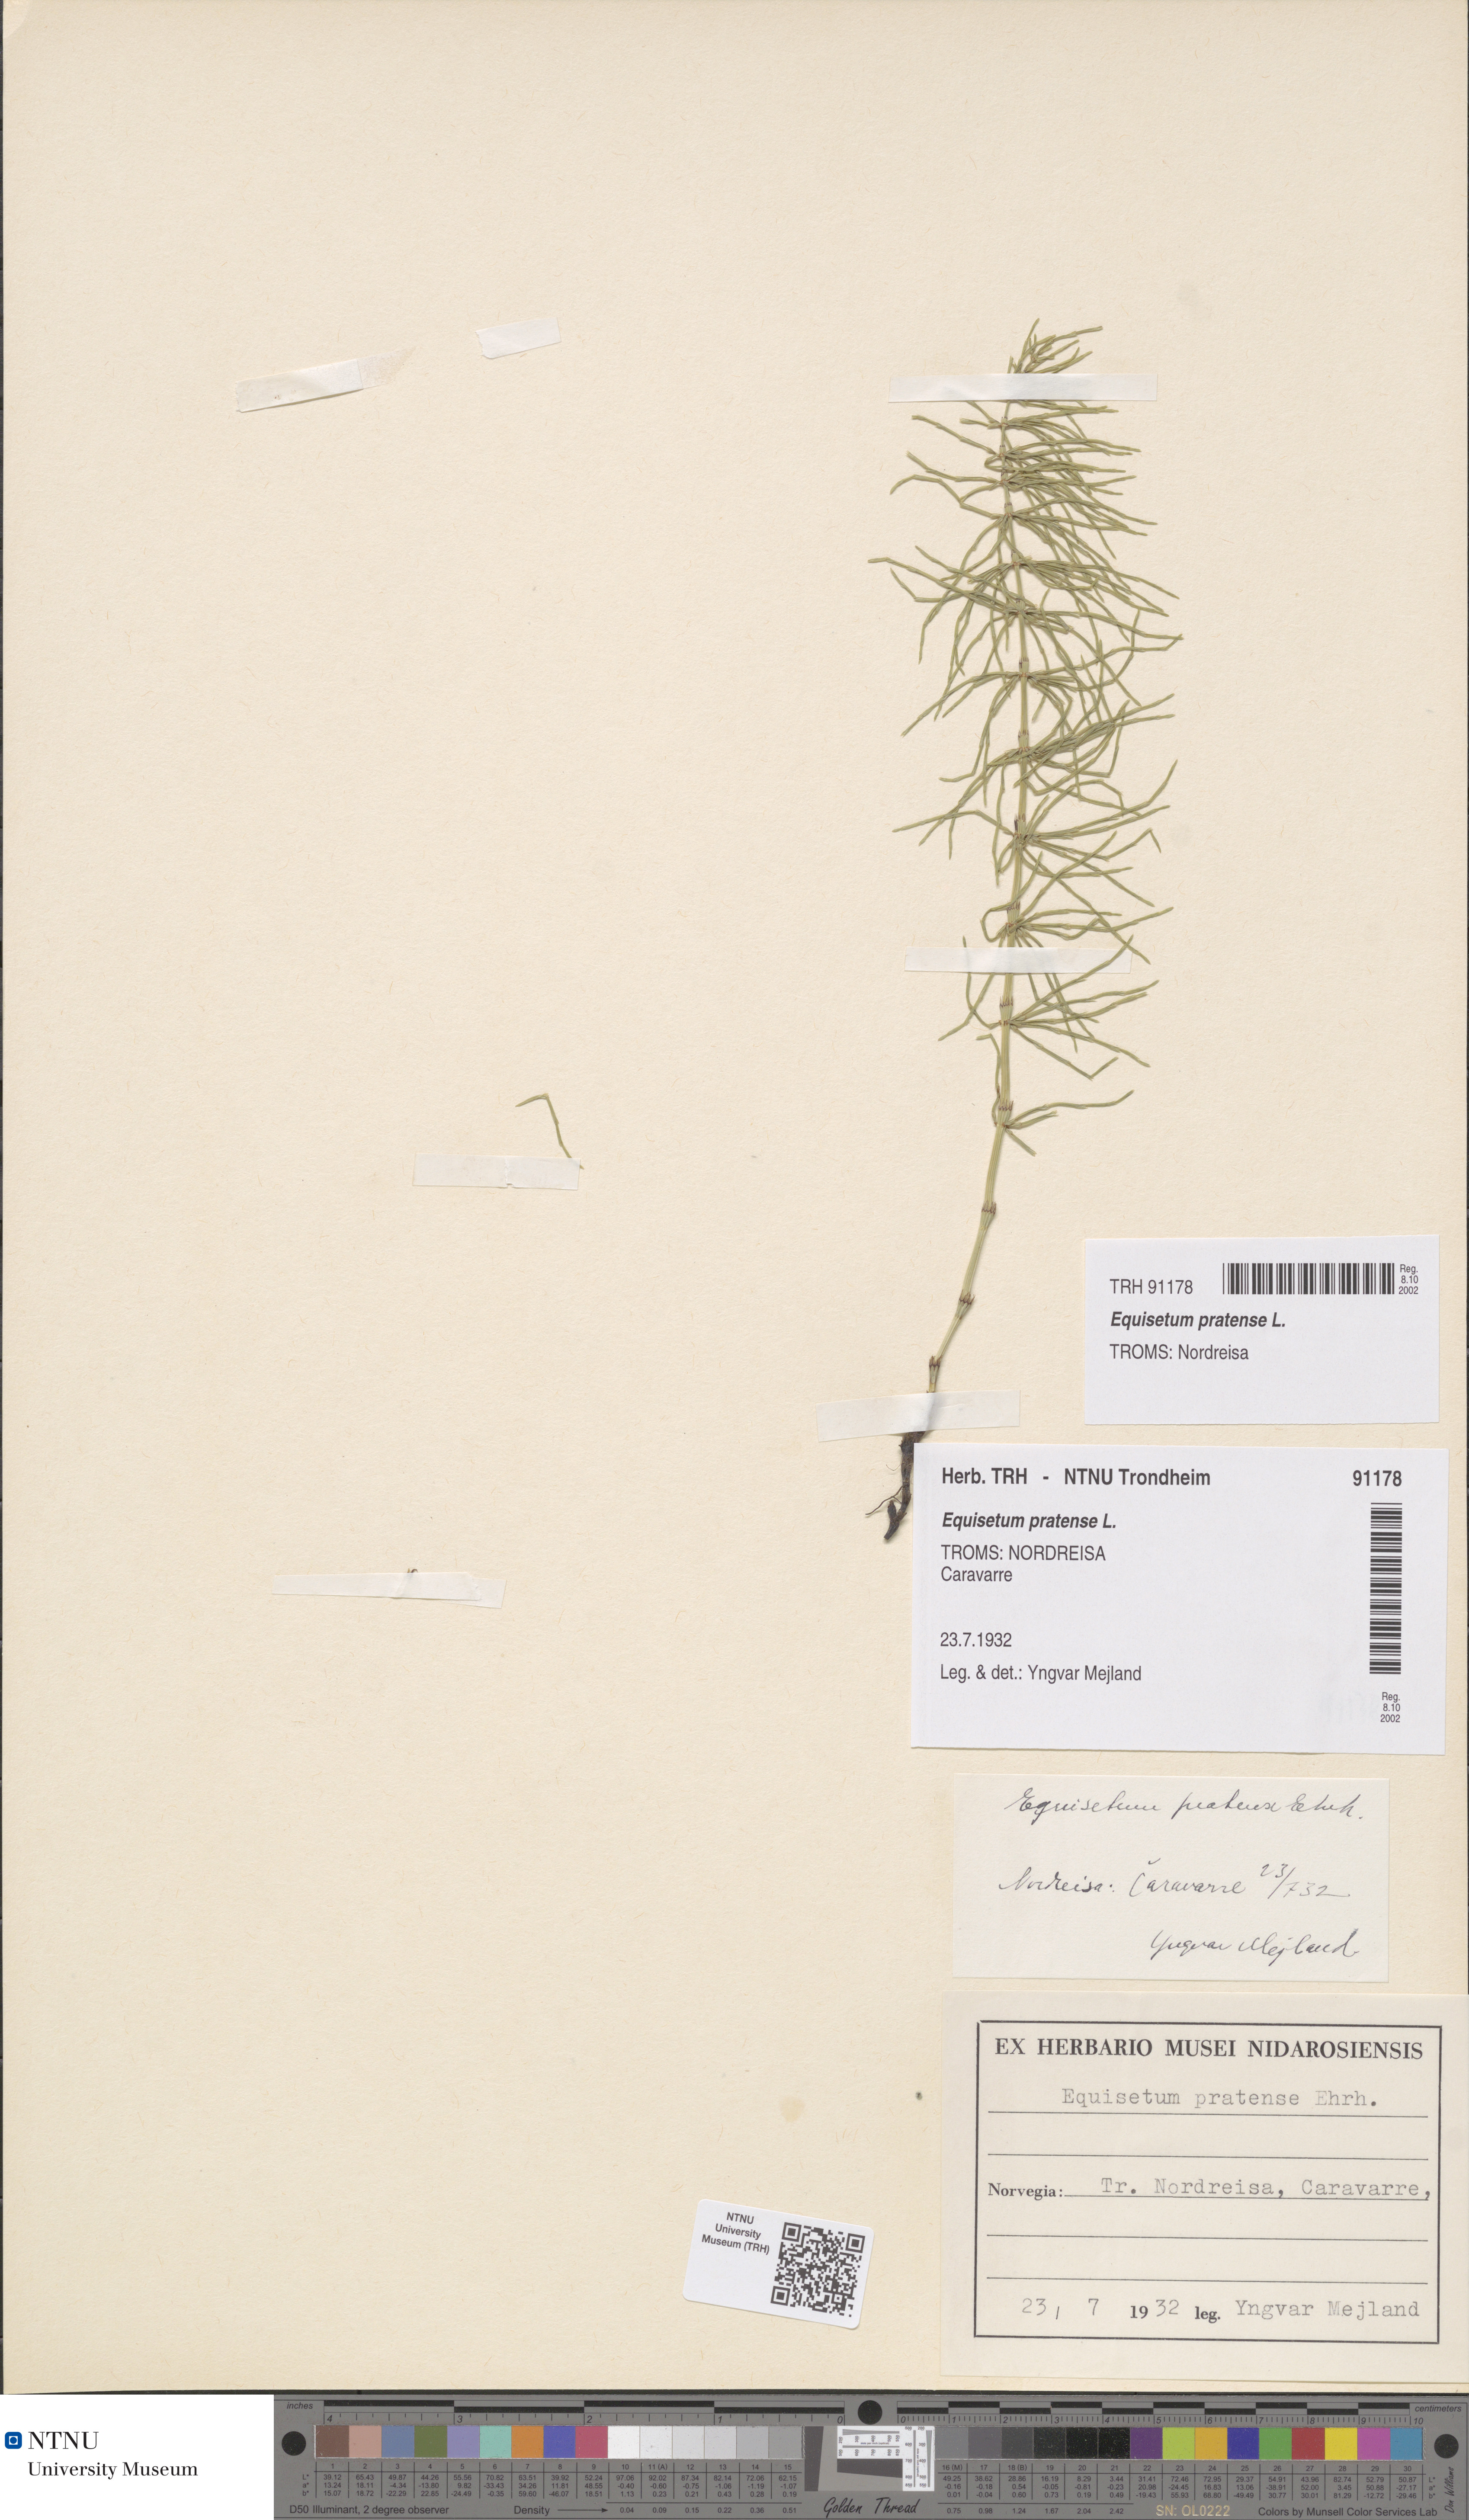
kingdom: Plantae
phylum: Tracheophyta
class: Polypodiopsida
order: Equisetales
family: Equisetaceae
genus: Equisetum
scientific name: Equisetum pratense
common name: Meadow horsetail
